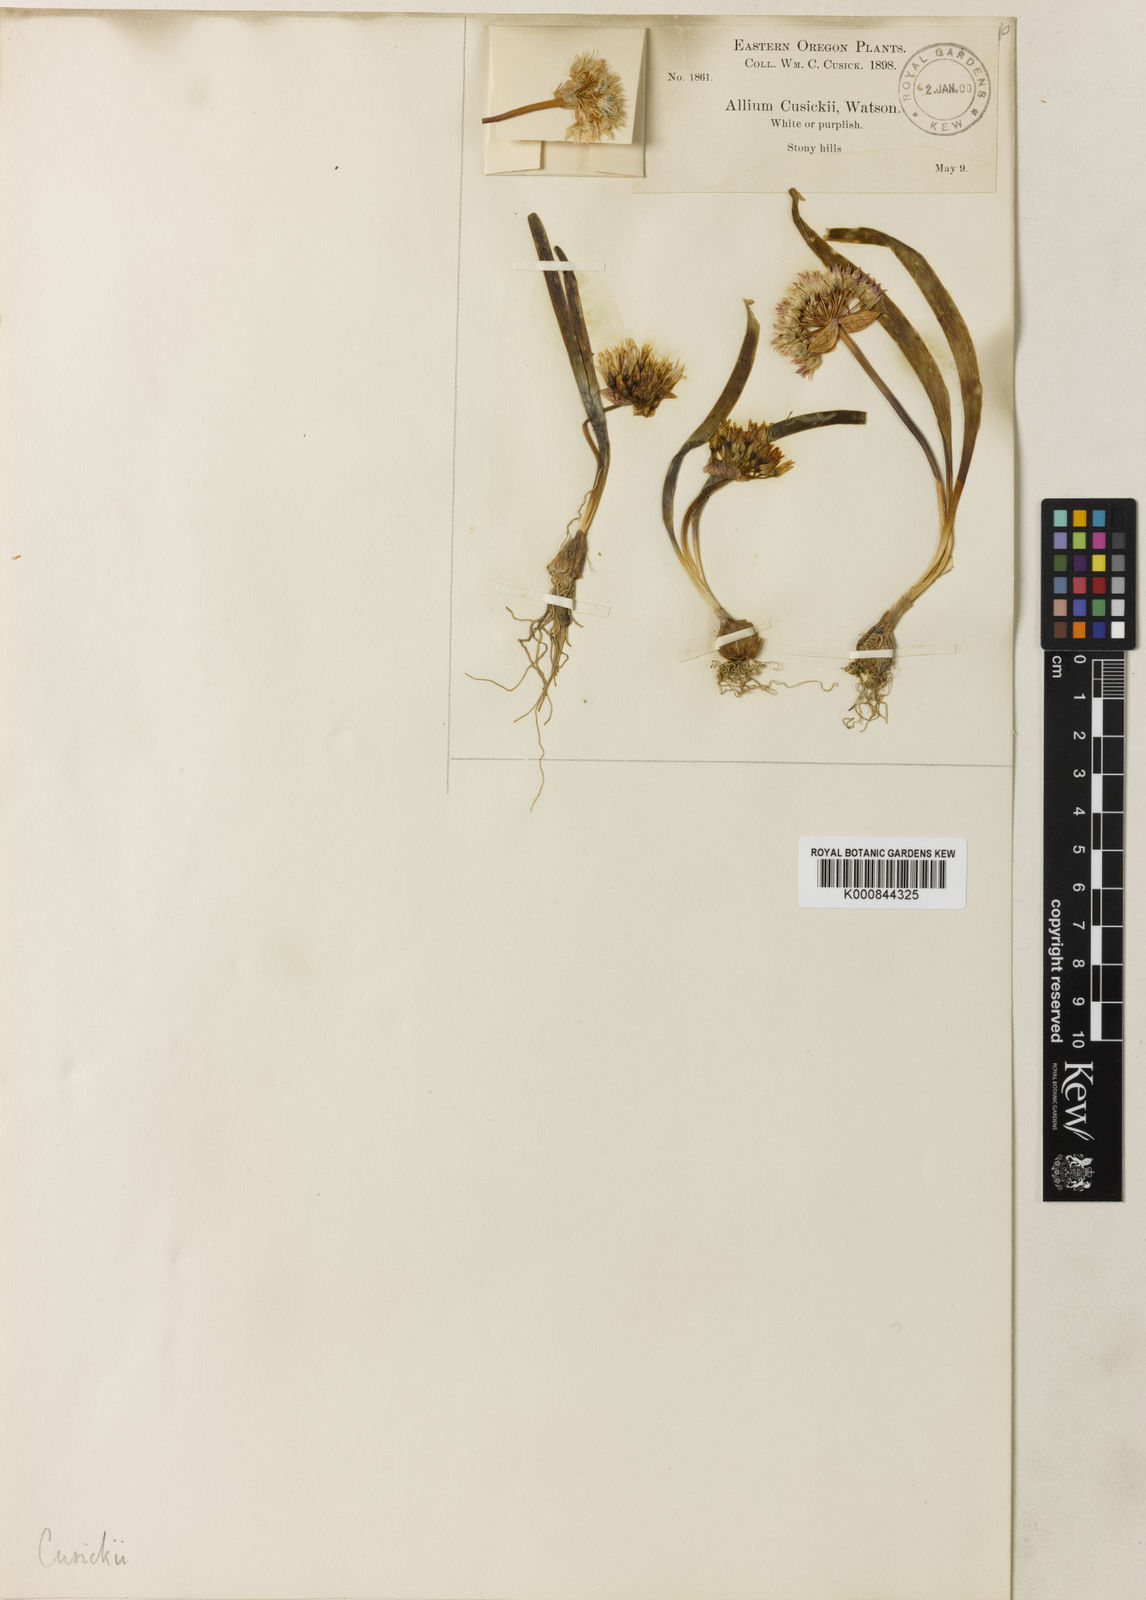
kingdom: Plantae
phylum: Tracheophyta
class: Liliopsida
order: Asparagales
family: Amaryllidaceae
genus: Allium
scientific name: Allium tolmiei
